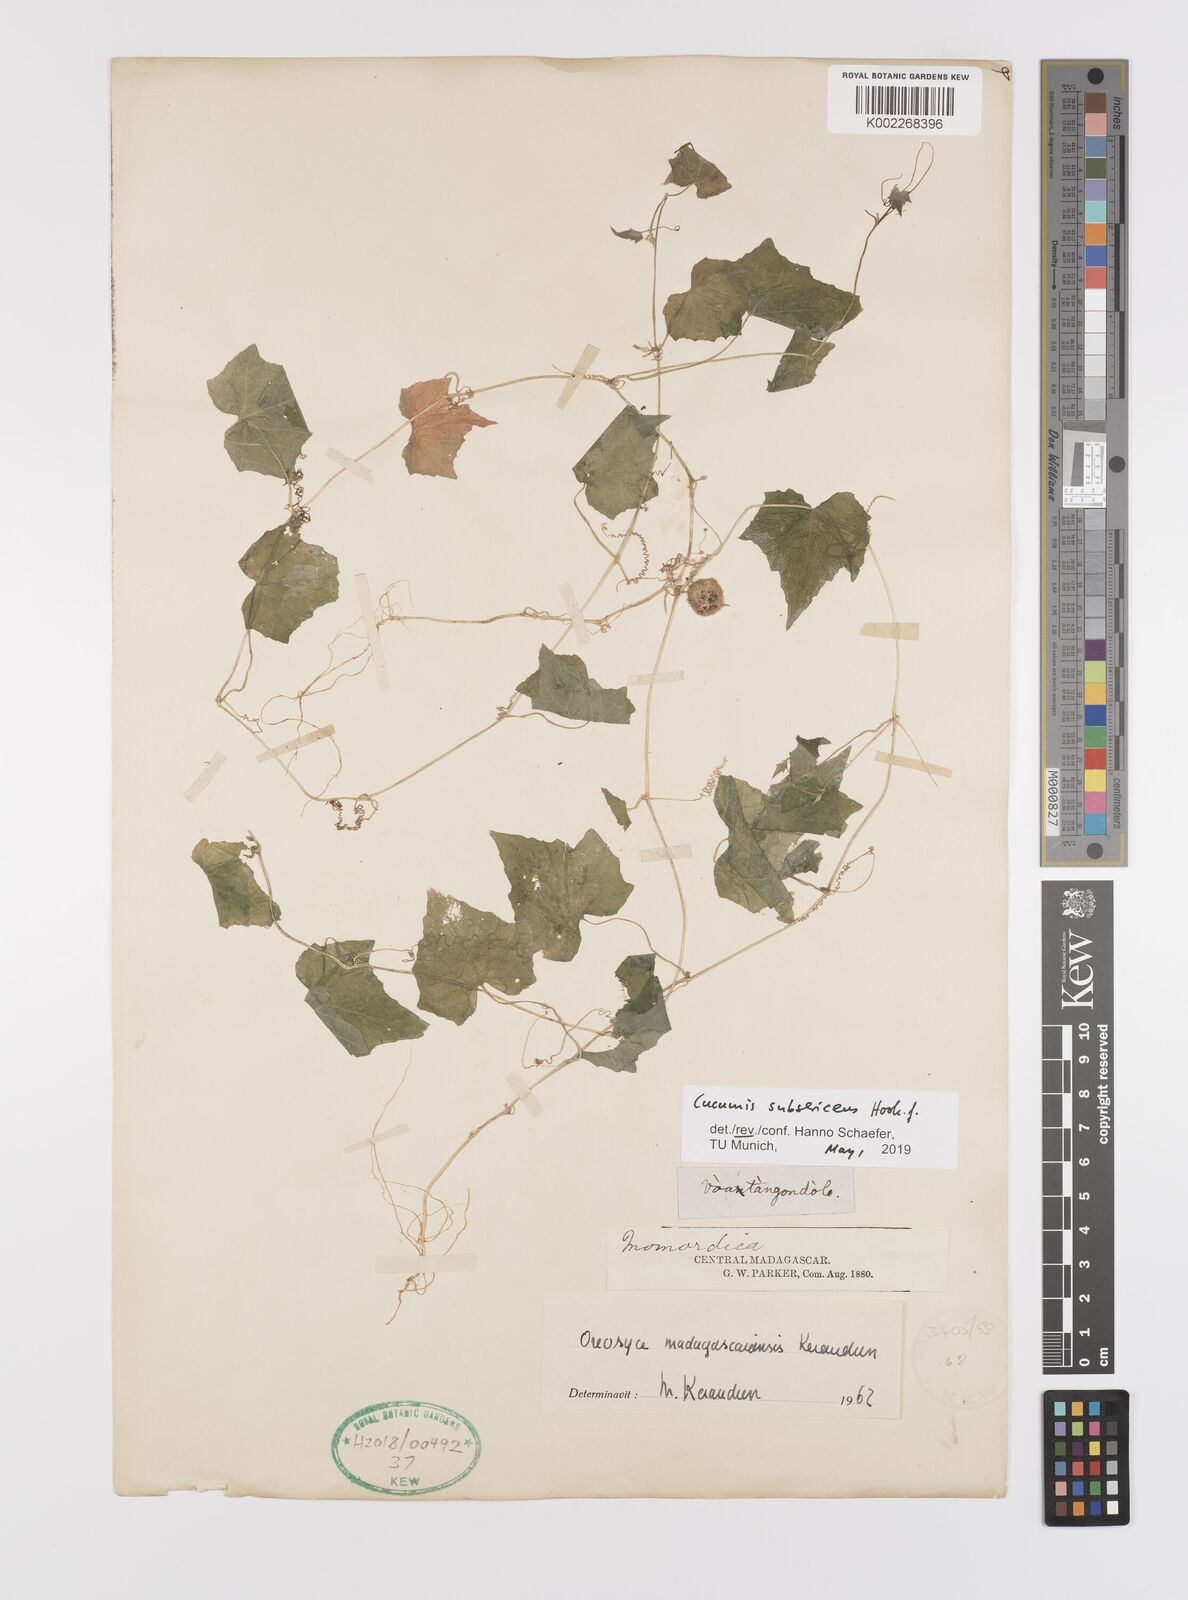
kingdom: Plantae
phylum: Tracheophyta
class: Magnoliopsida
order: Cucurbitales
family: Cucurbitaceae
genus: Cucumis
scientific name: Cucumis oreosyce
